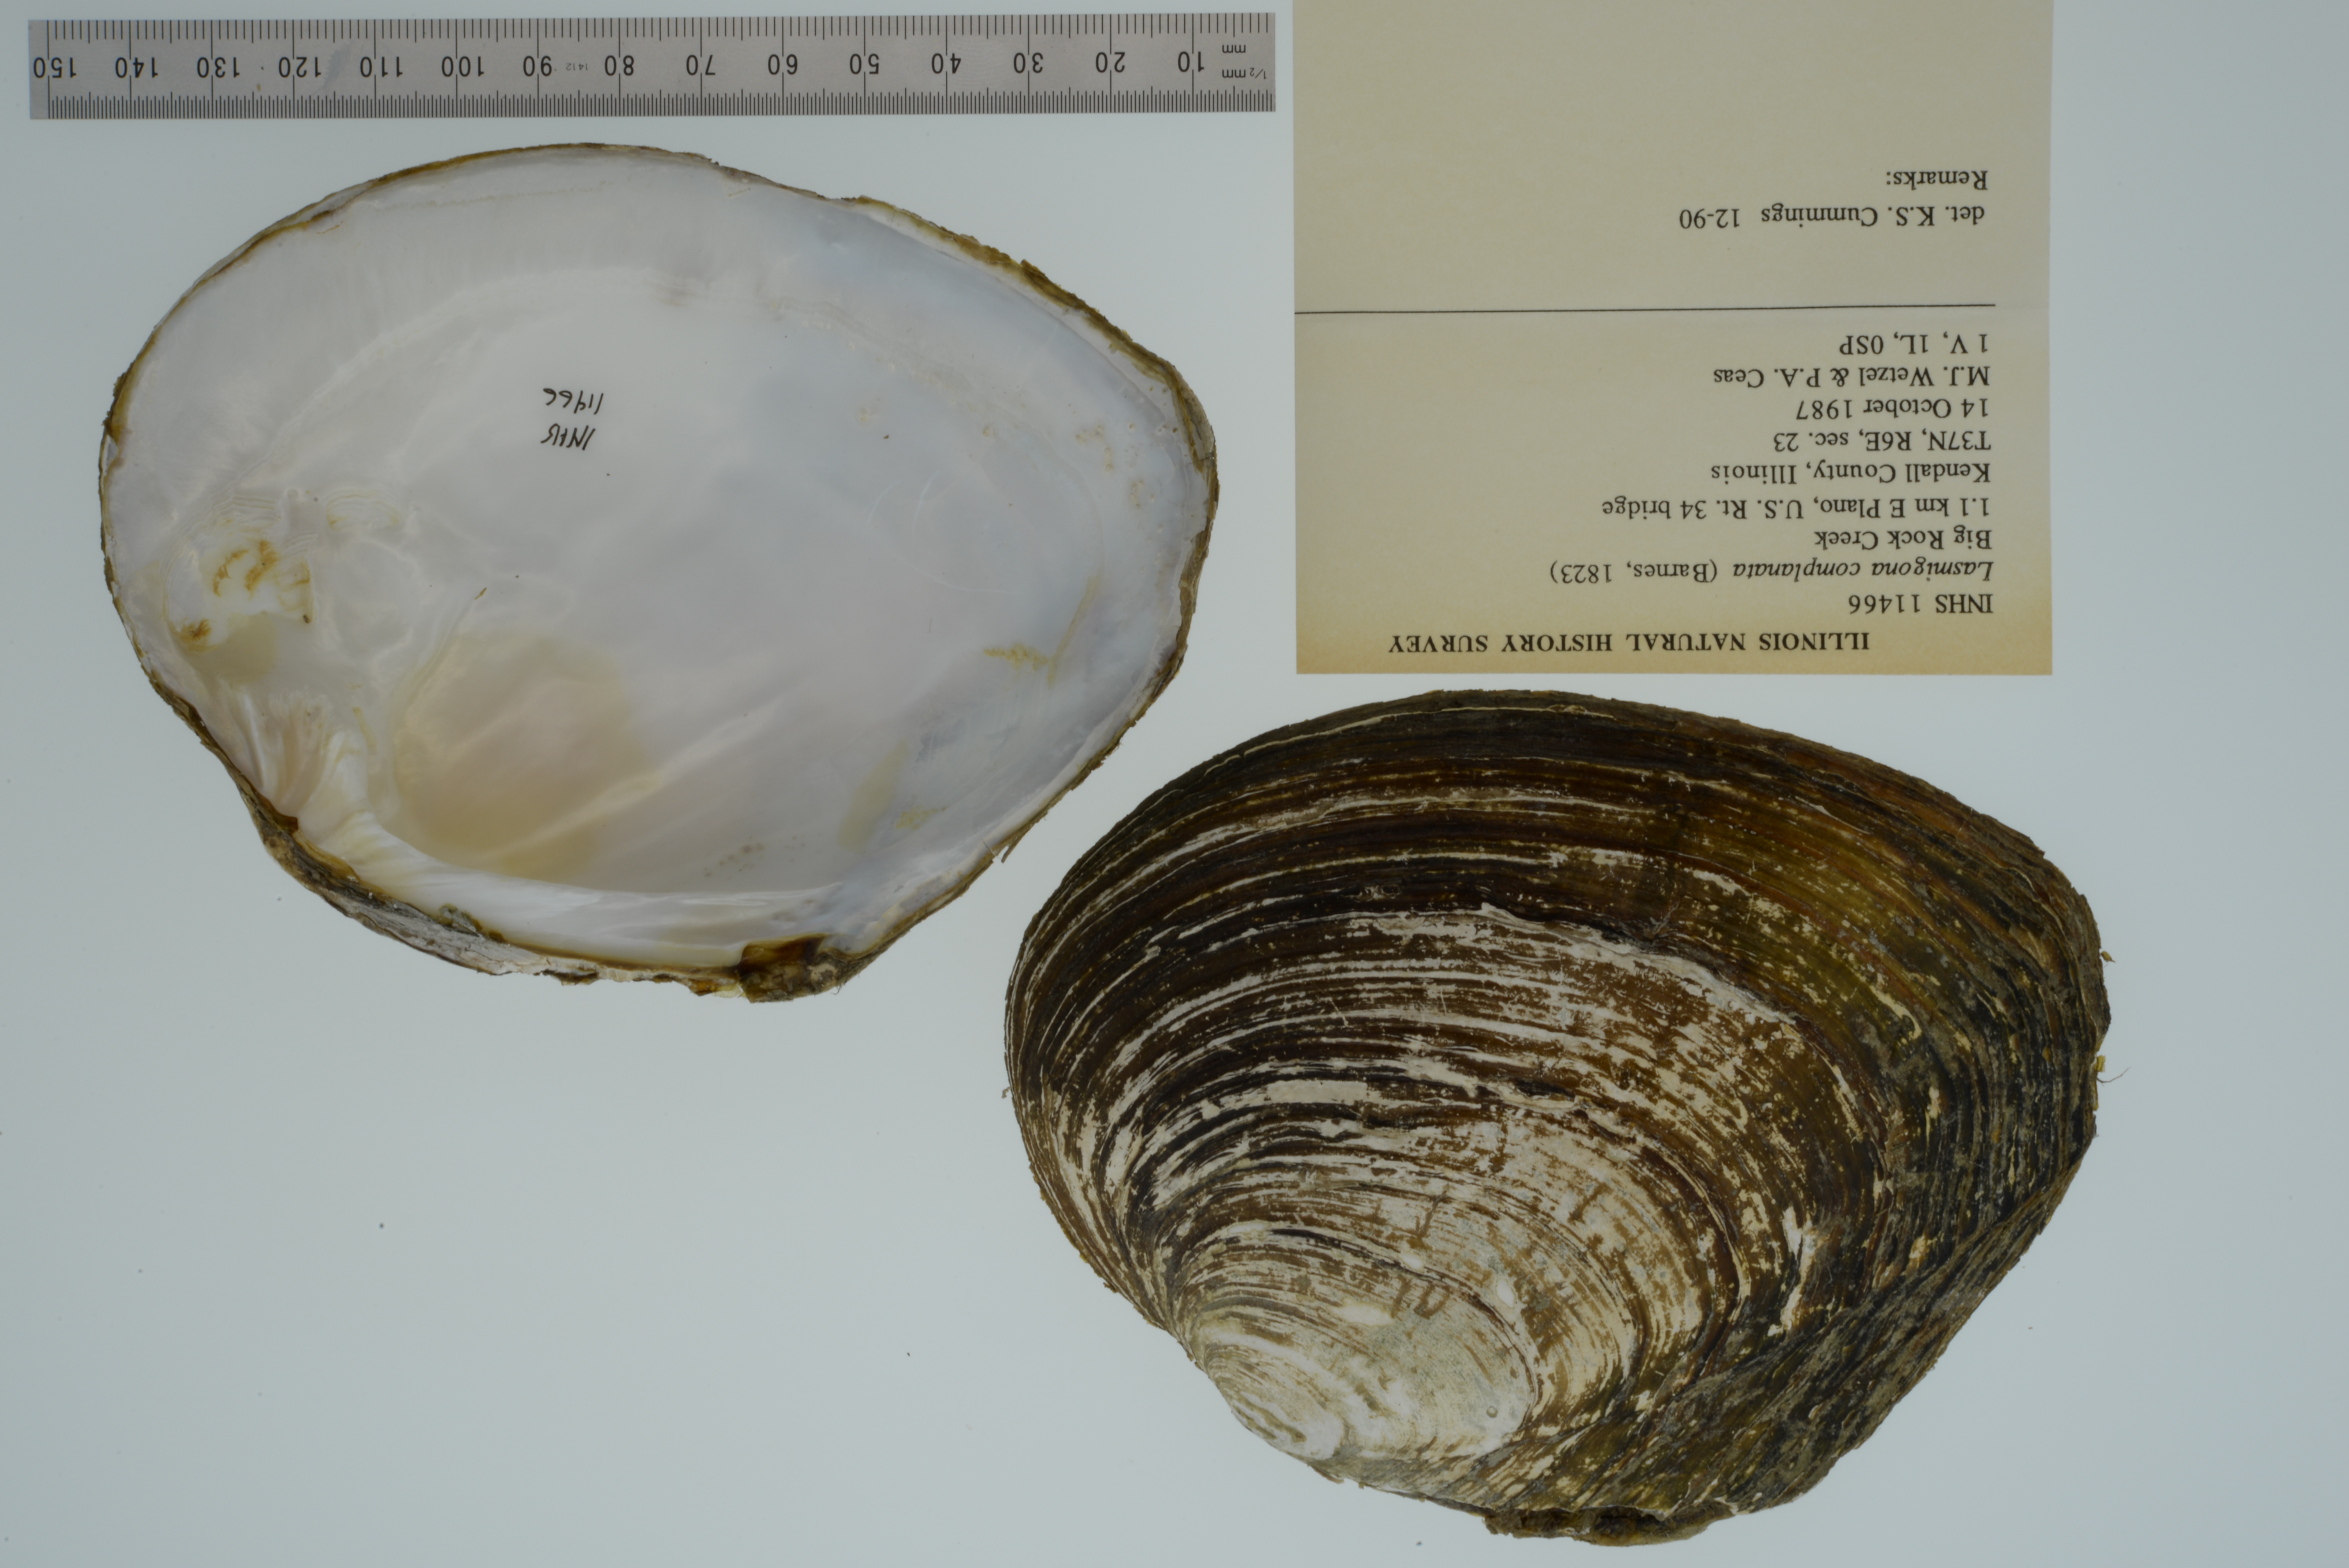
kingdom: Animalia
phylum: Mollusca
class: Bivalvia
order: Unionida
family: Unionidae
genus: Lasmigona
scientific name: Lasmigona complanata
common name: White heelsplitter
